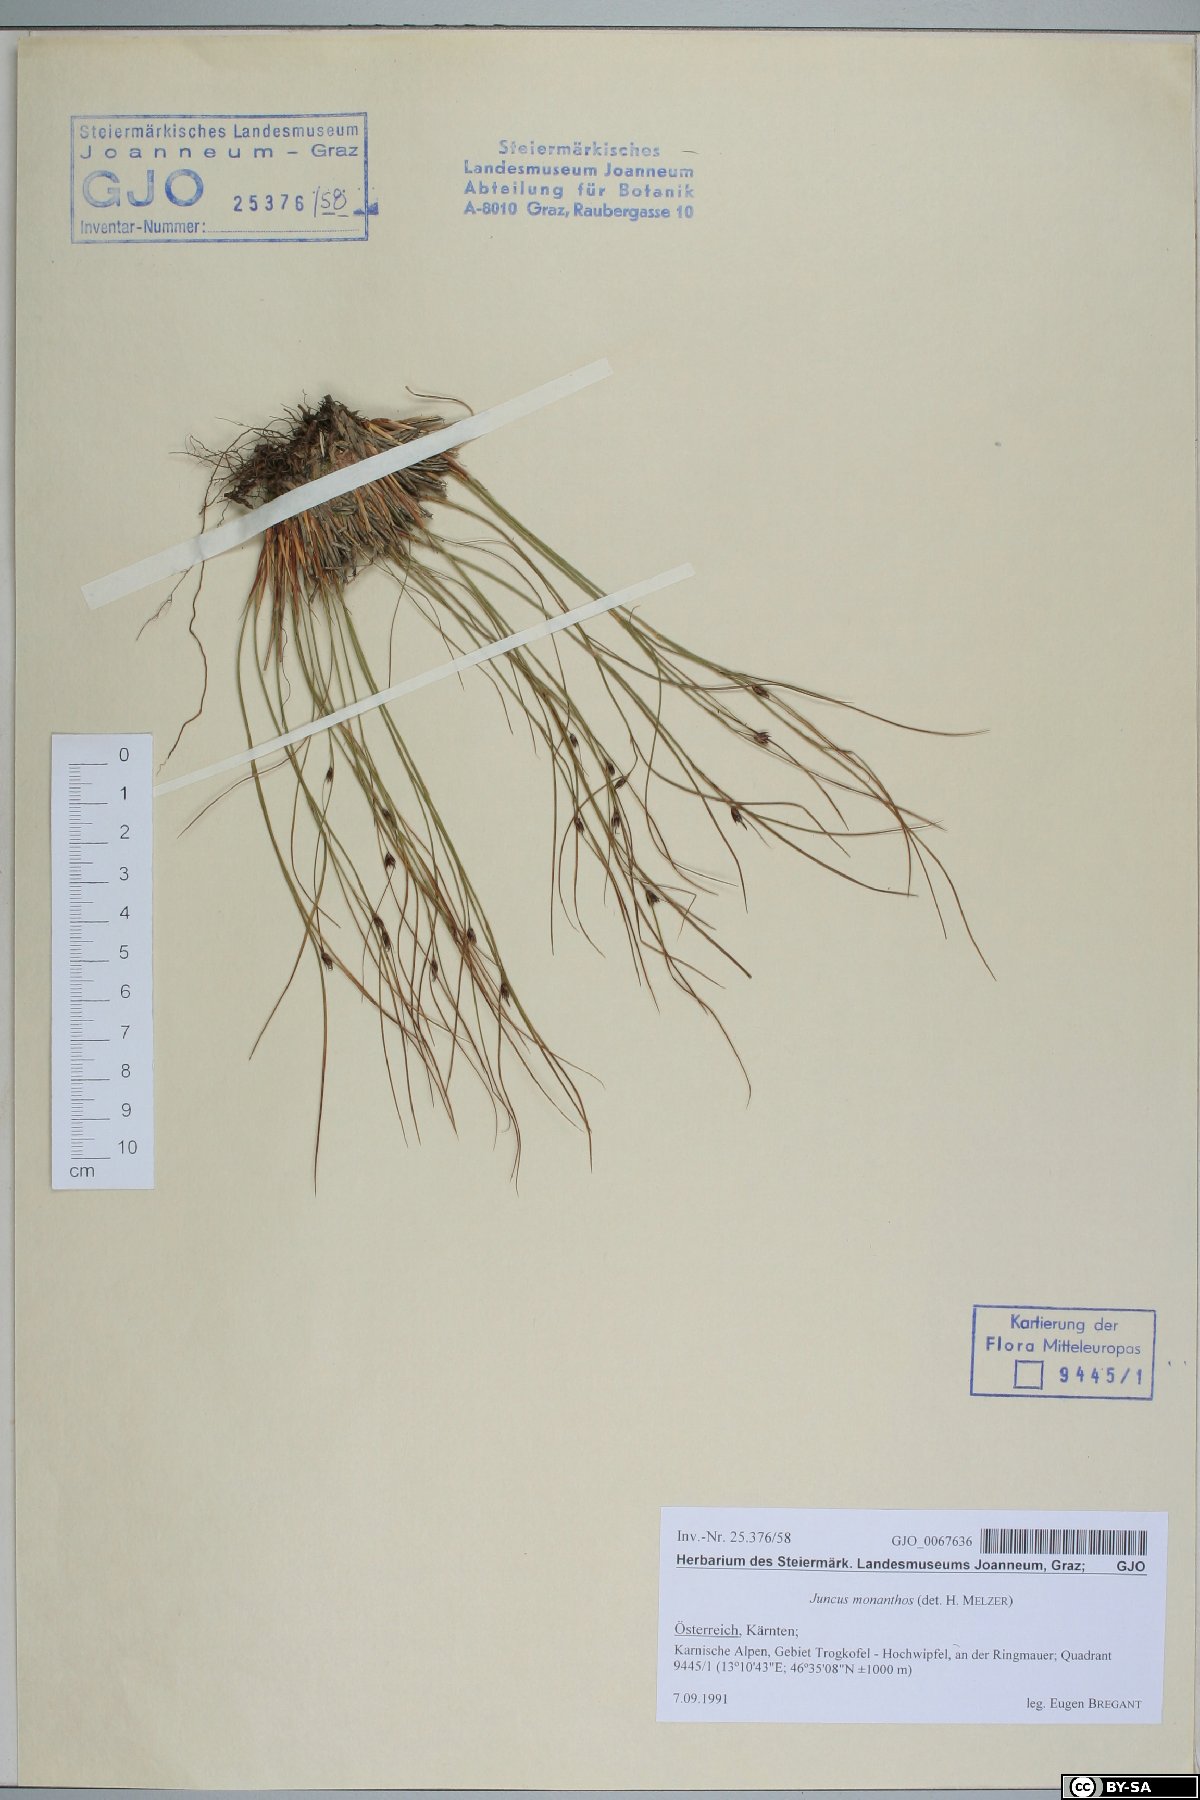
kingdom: Plantae
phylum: Tracheophyta
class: Liliopsida
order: Poales
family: Juncaceae
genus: Oreojuncus
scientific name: Oreojuncus monanthos
